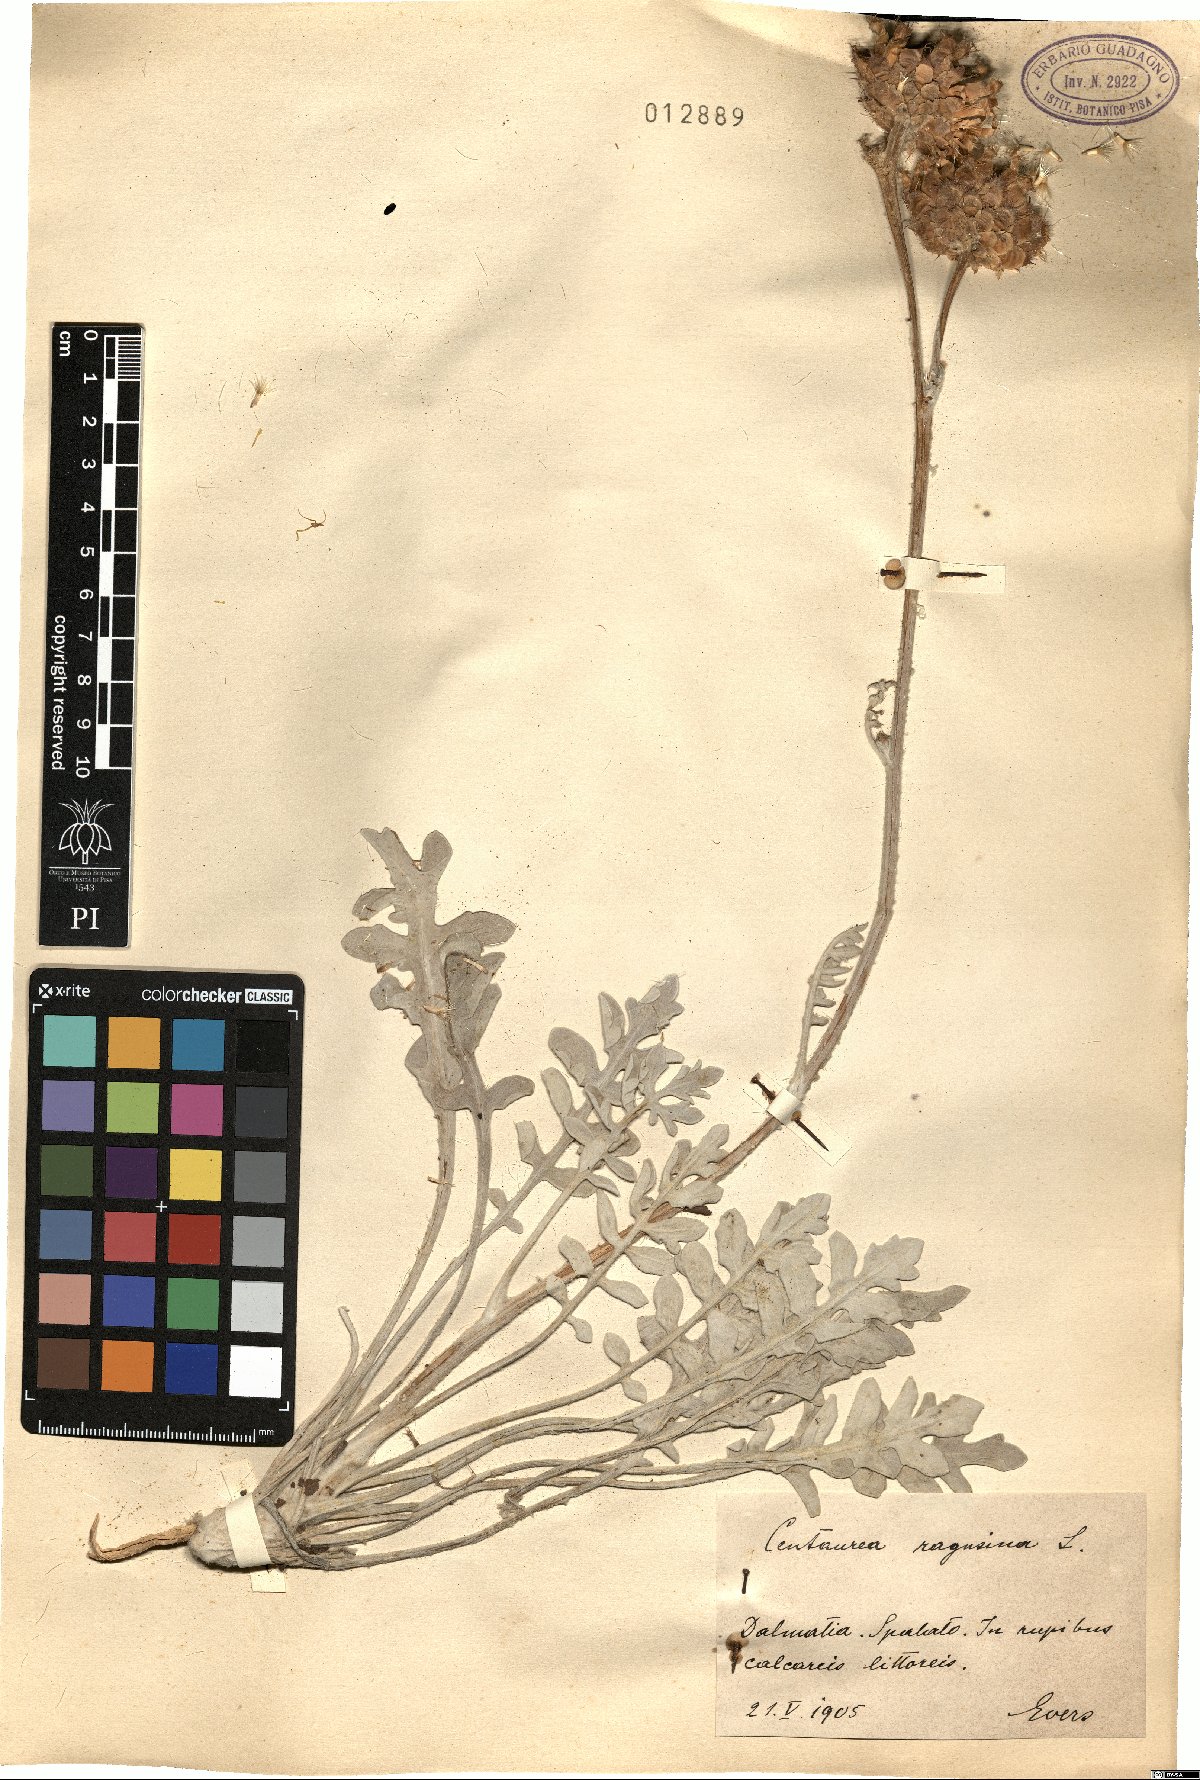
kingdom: Plantae
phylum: Tracheophyta
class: Magnoliopsida
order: Asterales
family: Asteraceae
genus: Centaurea
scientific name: Centaurea ragusina
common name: Dusty-miller
